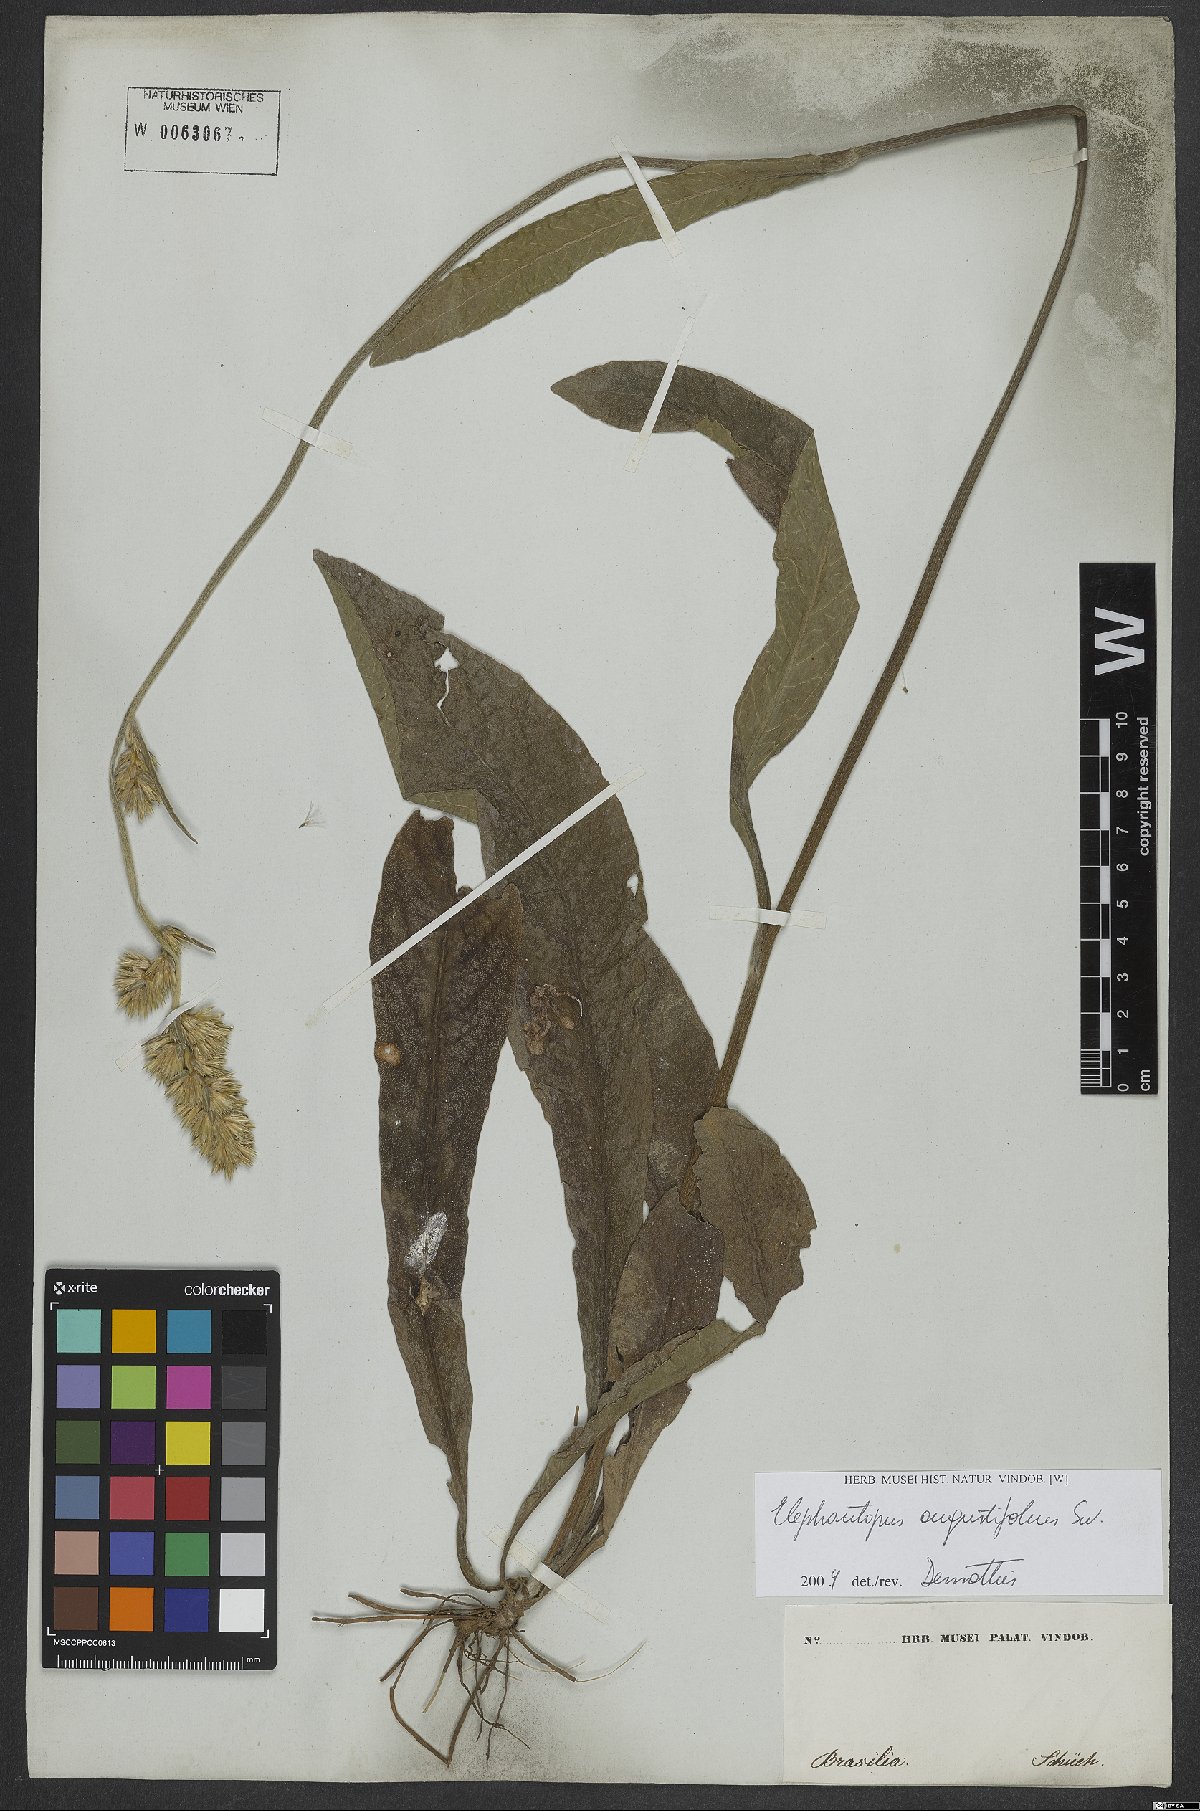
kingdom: Plantae
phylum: Tracheophyta
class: Magnoliopsida
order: Asterales
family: Asteraceae
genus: Orthopappus
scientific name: Orthopappus angustifolius
